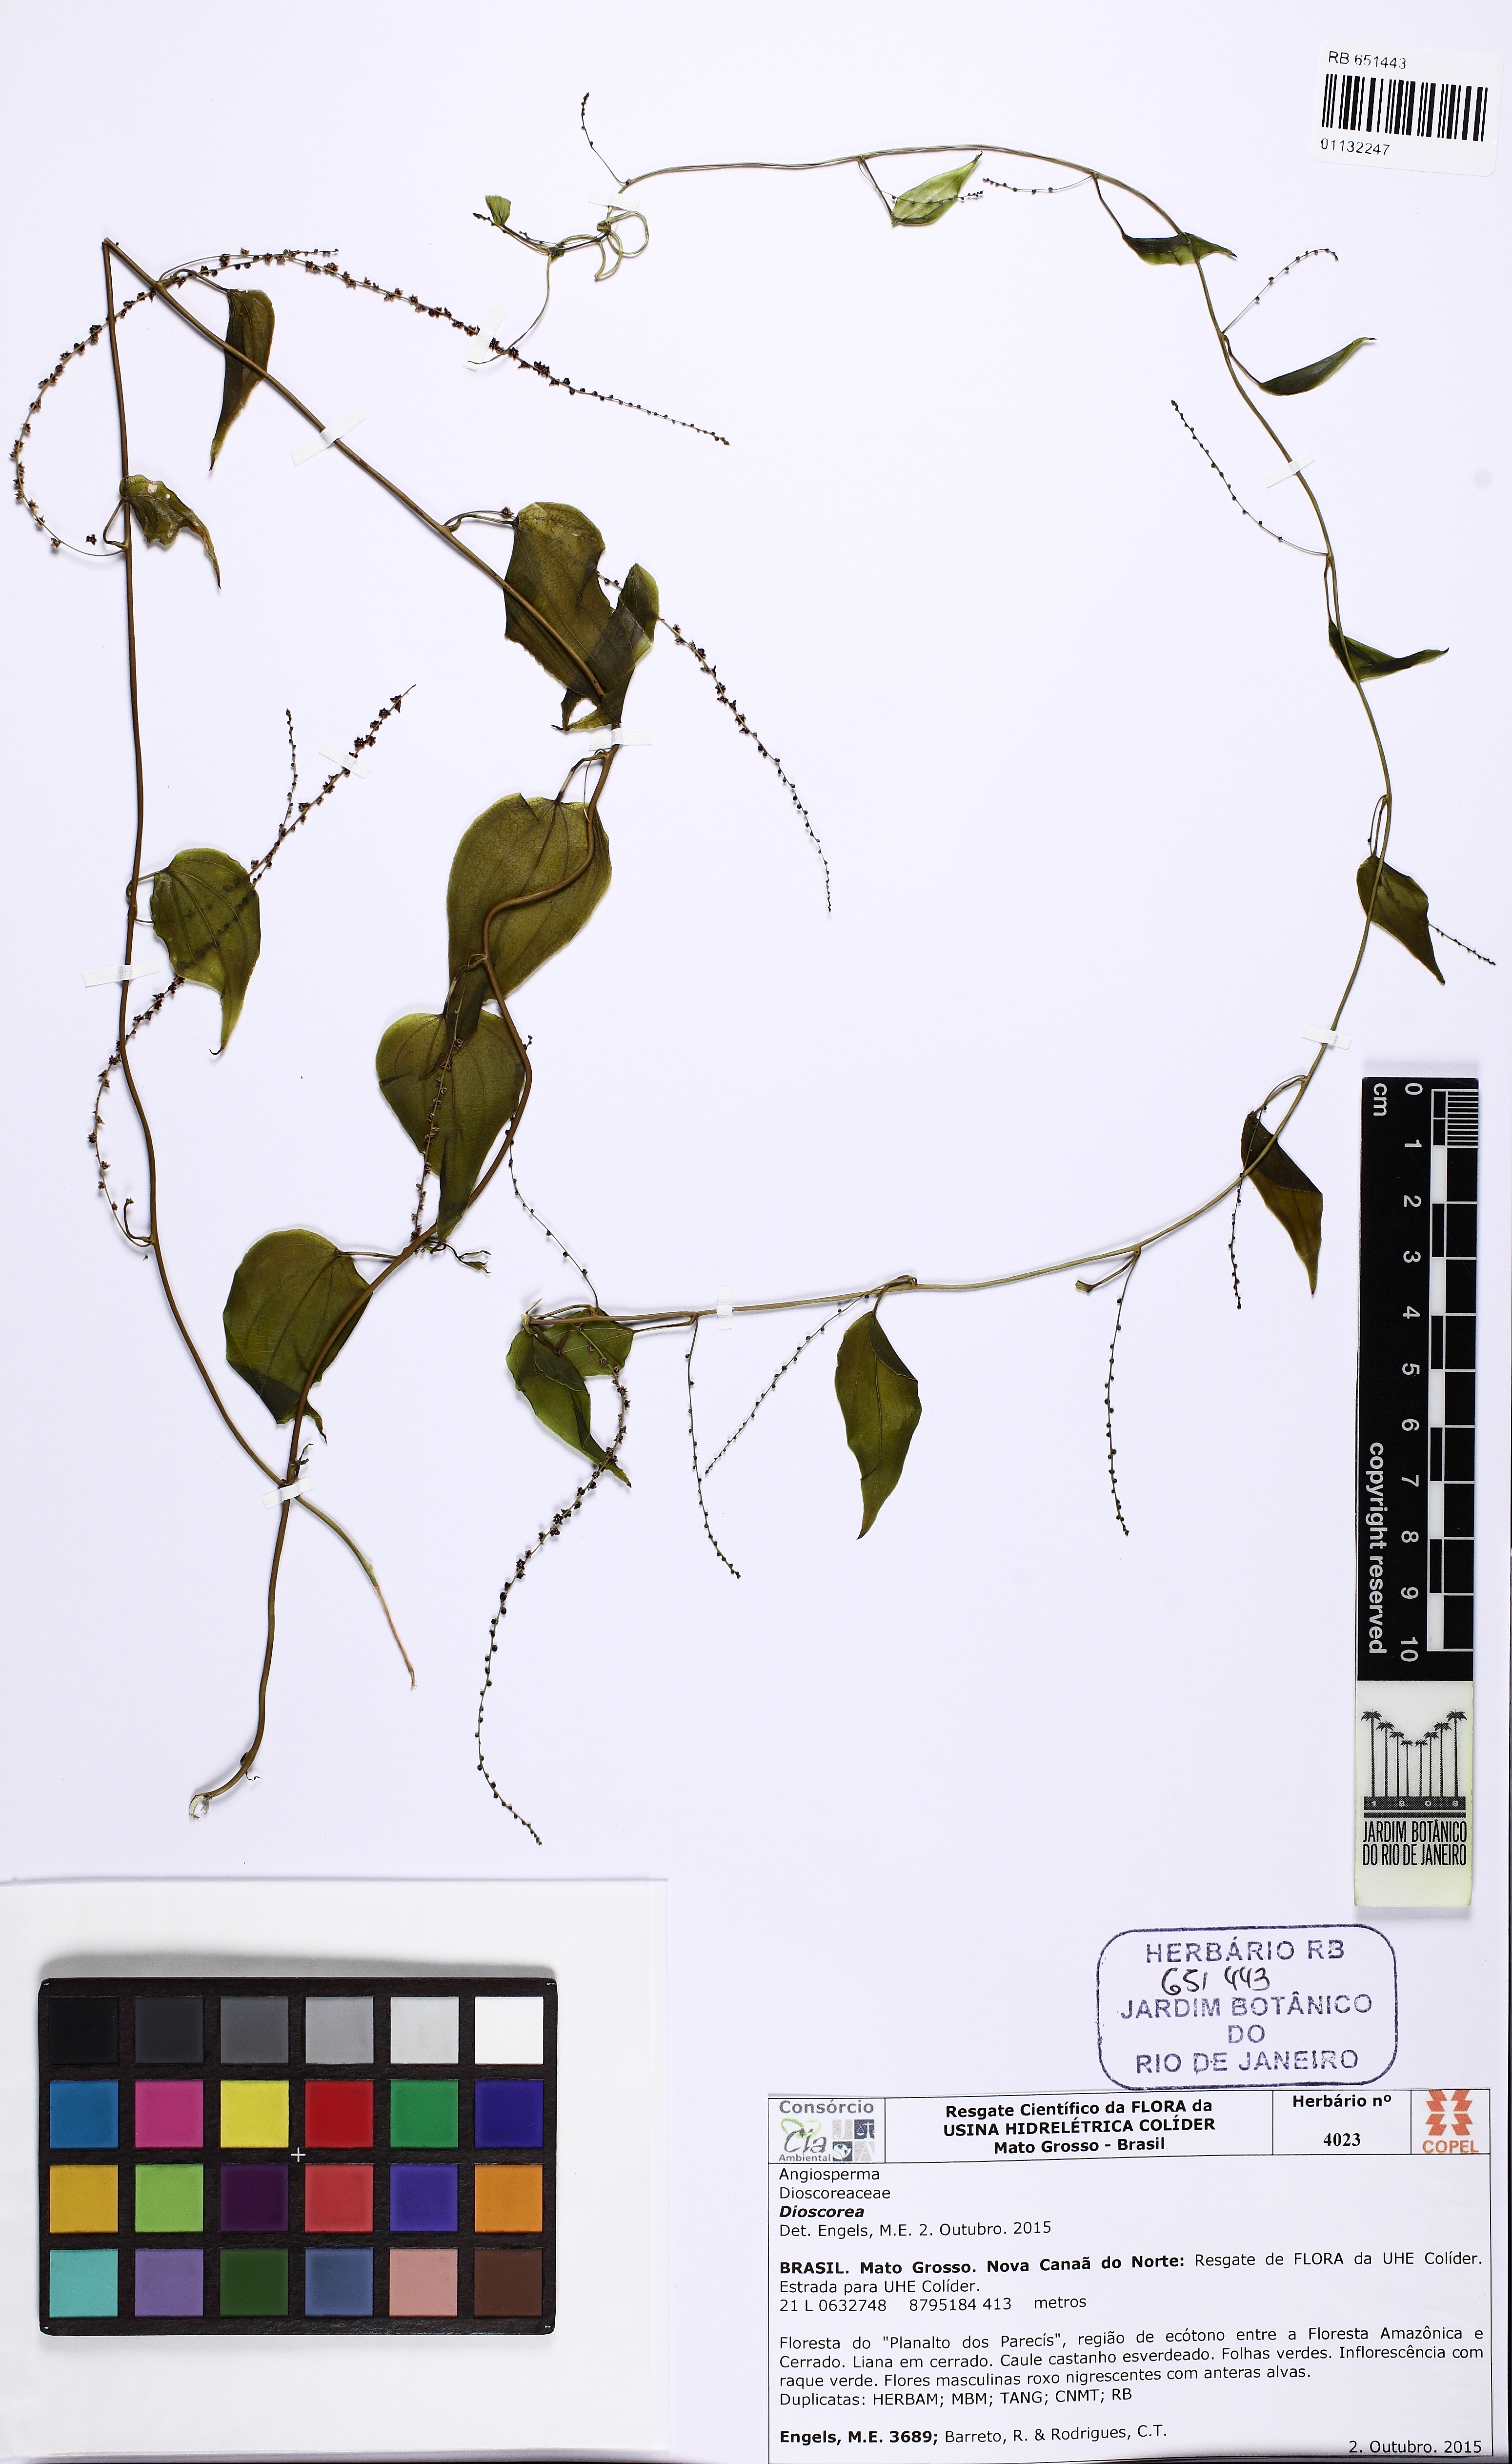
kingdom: Plantae
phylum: Tracheophyta
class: Liliopsida
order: Dioscoreales
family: Dioscoreaceae
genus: Dioscorea
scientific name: Dioscorea
